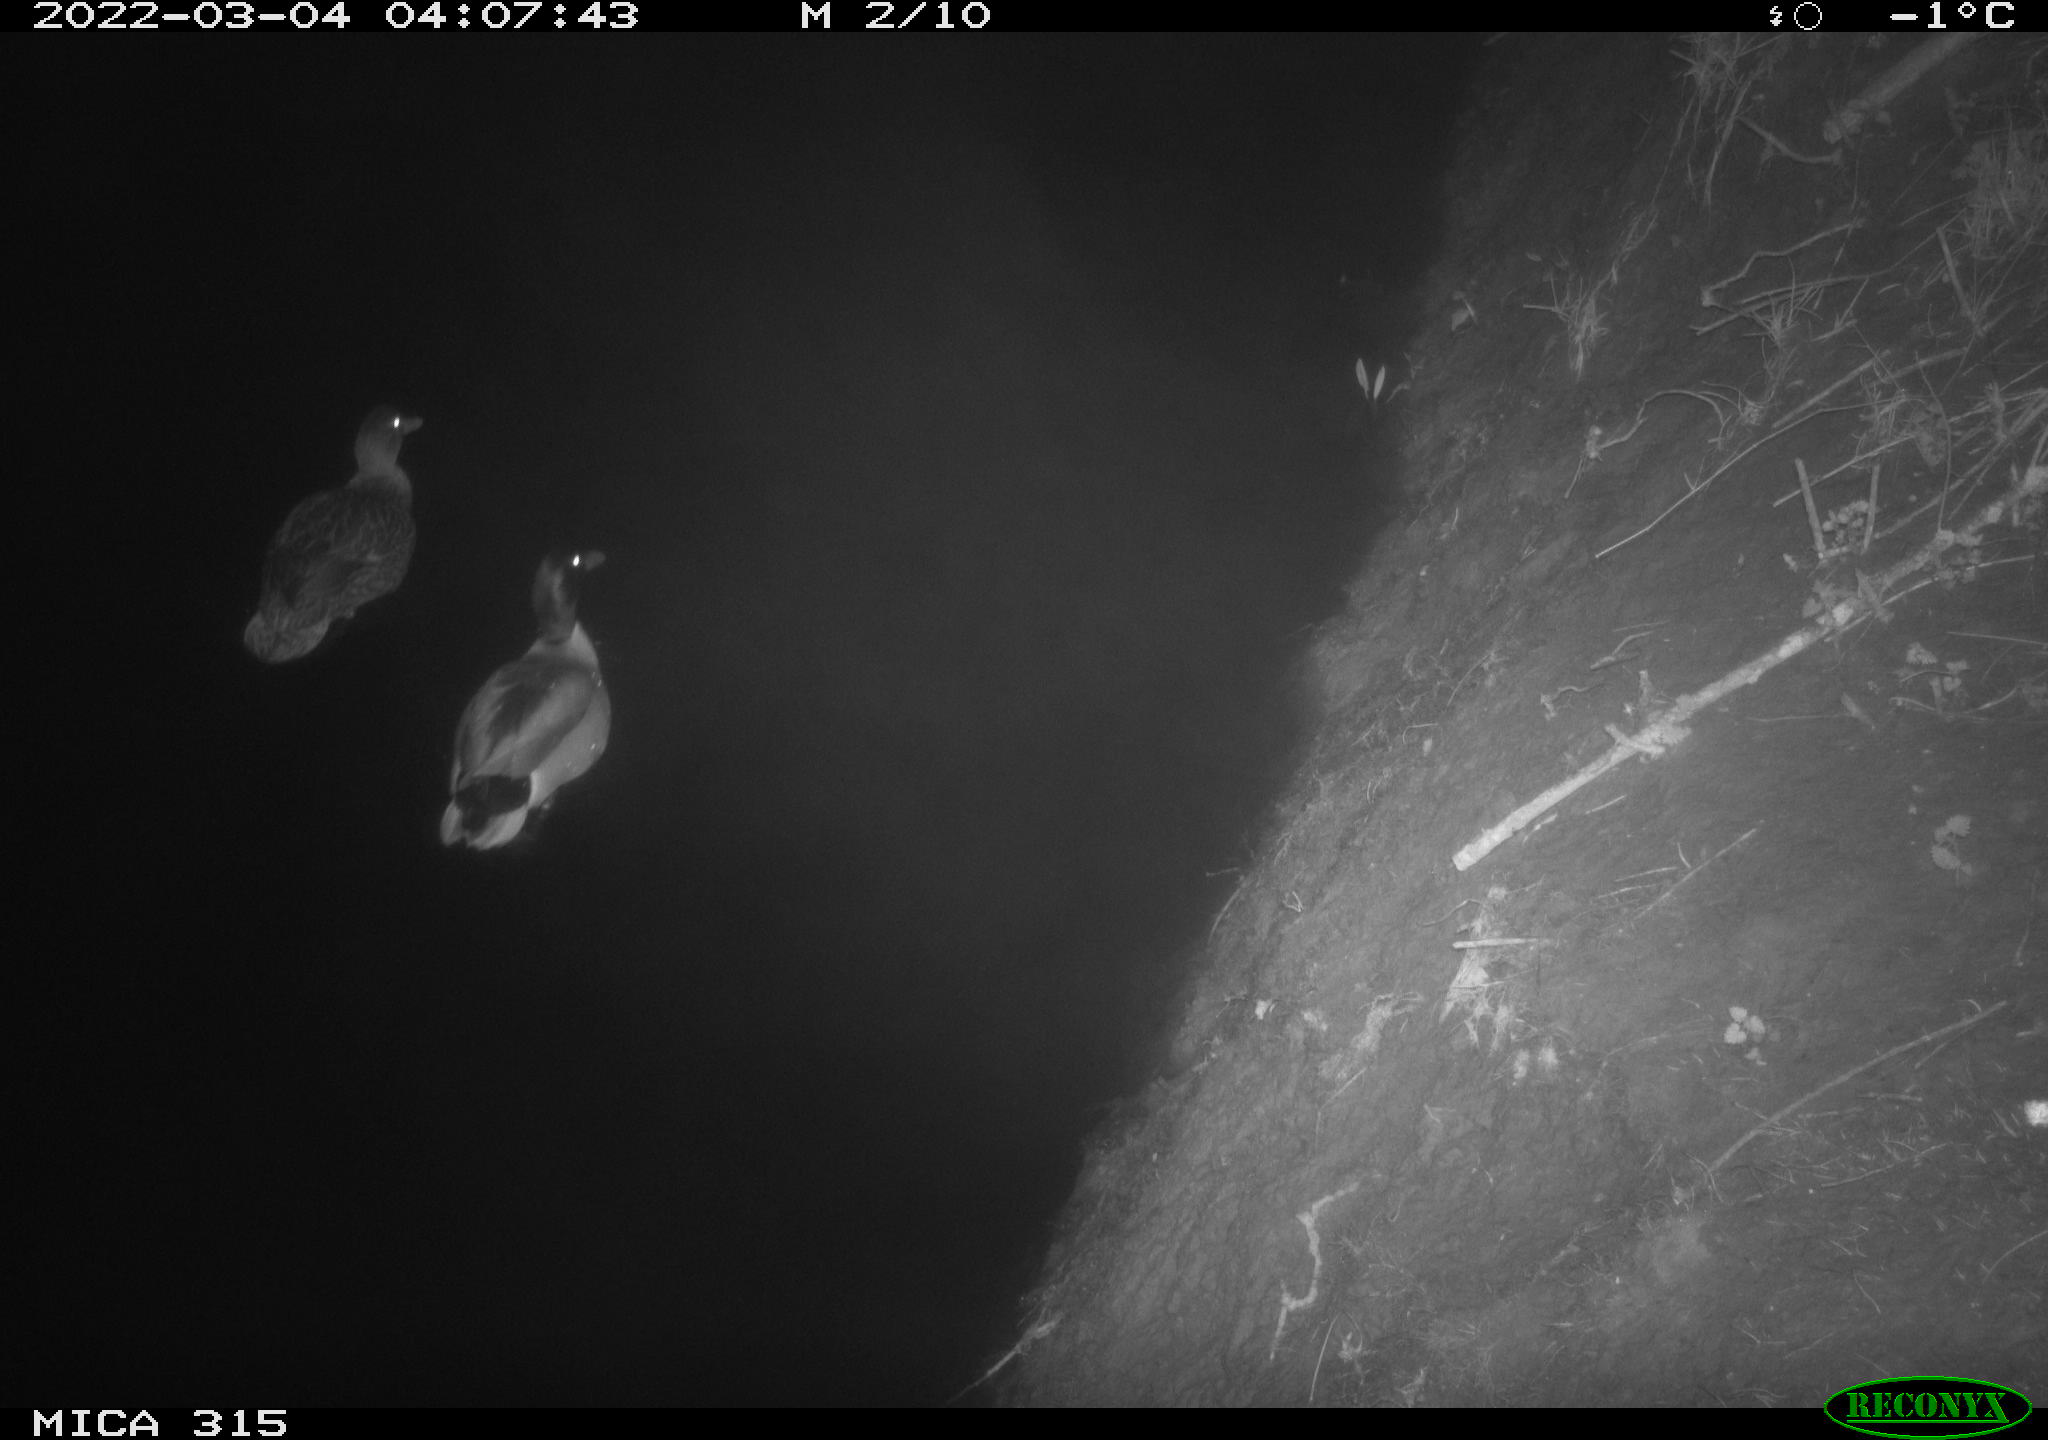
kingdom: Animalia
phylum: Chordata
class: Aves
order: Anseriformes
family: Anatidae
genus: Anas
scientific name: Anas platyrhynchos
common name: Mallard
